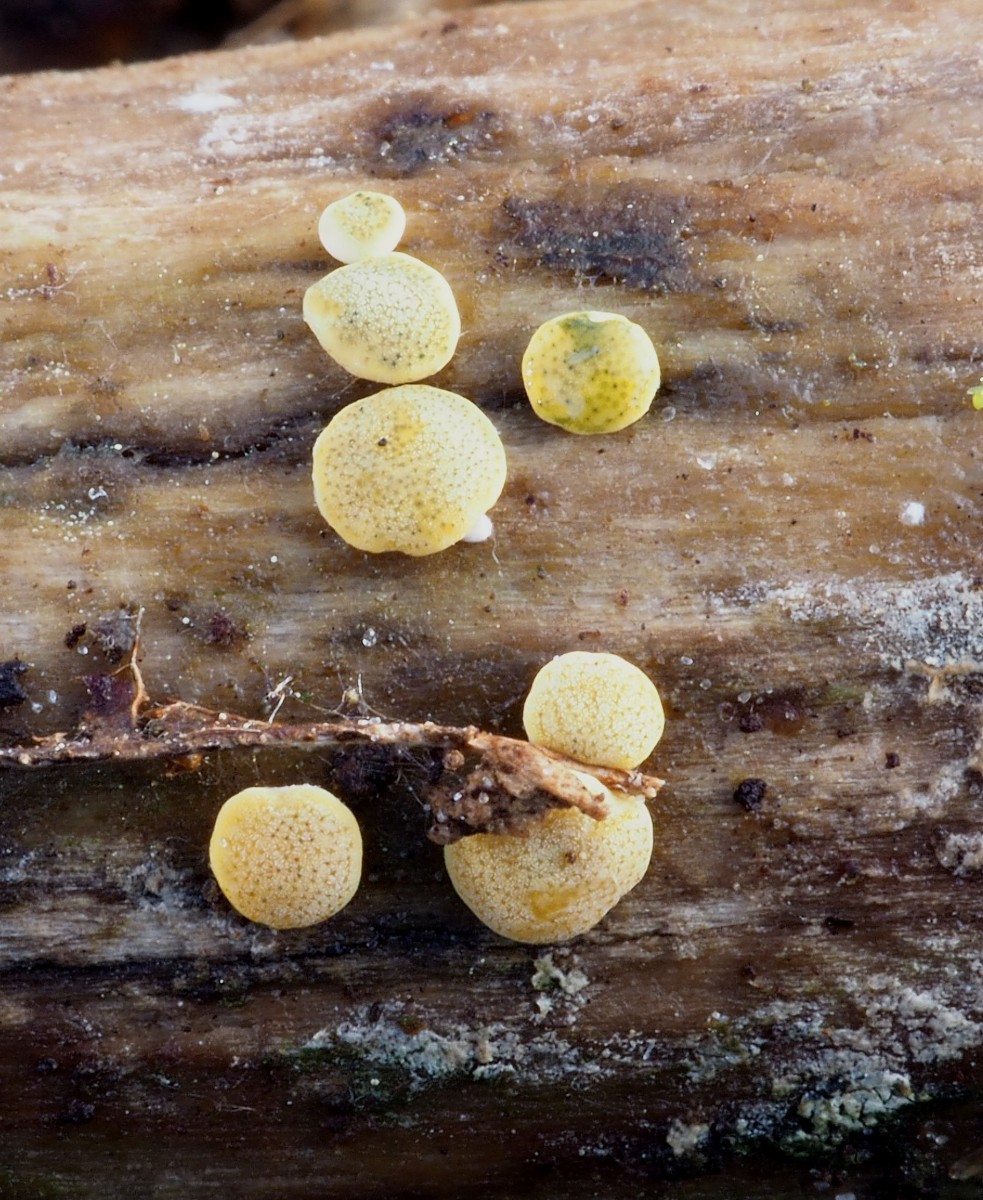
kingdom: Fungi
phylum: Ascomycota
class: Sordariomycetes
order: Hypocreales
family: Hypocreaceae
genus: Trichoderma
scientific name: Trichoderma aureoviride
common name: æggegul kødkerne
